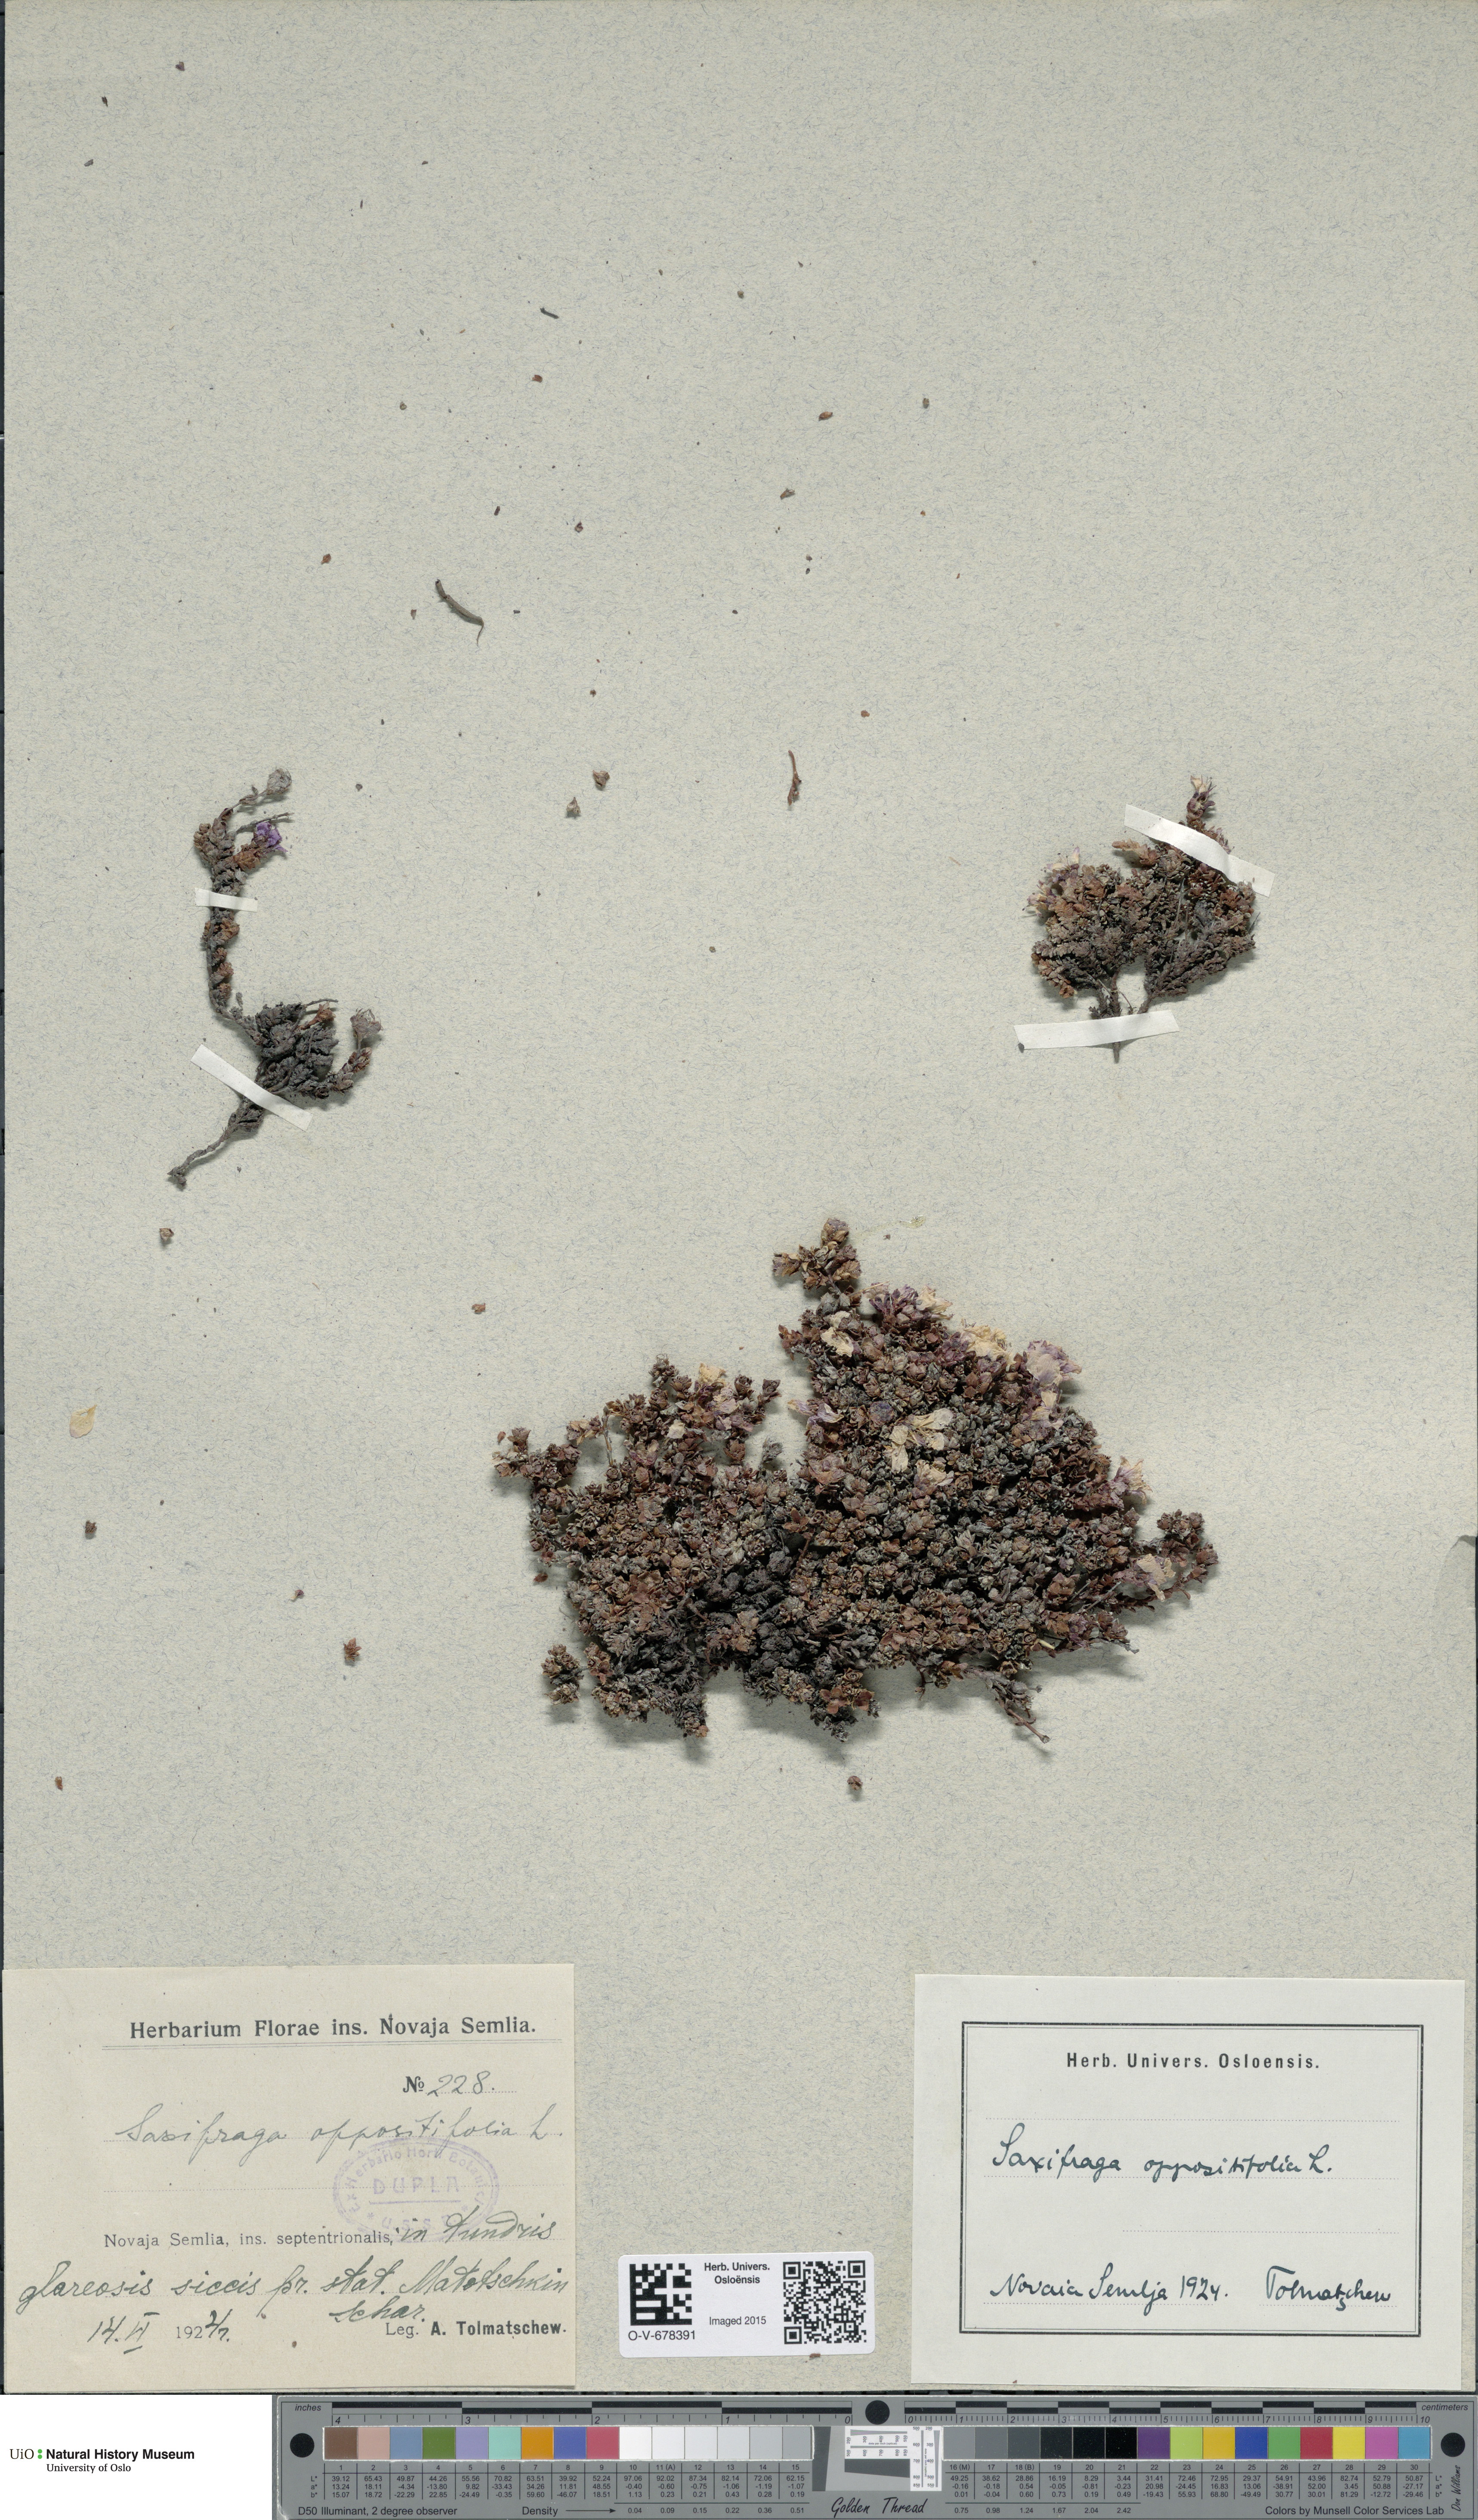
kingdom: Plantae
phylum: Tracheophyta
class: Magnoliopsida
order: Saxifragales
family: Saxifragaceae
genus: Saxifraga
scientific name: Saxifraga oppositifolia
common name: Purple saxifrage
